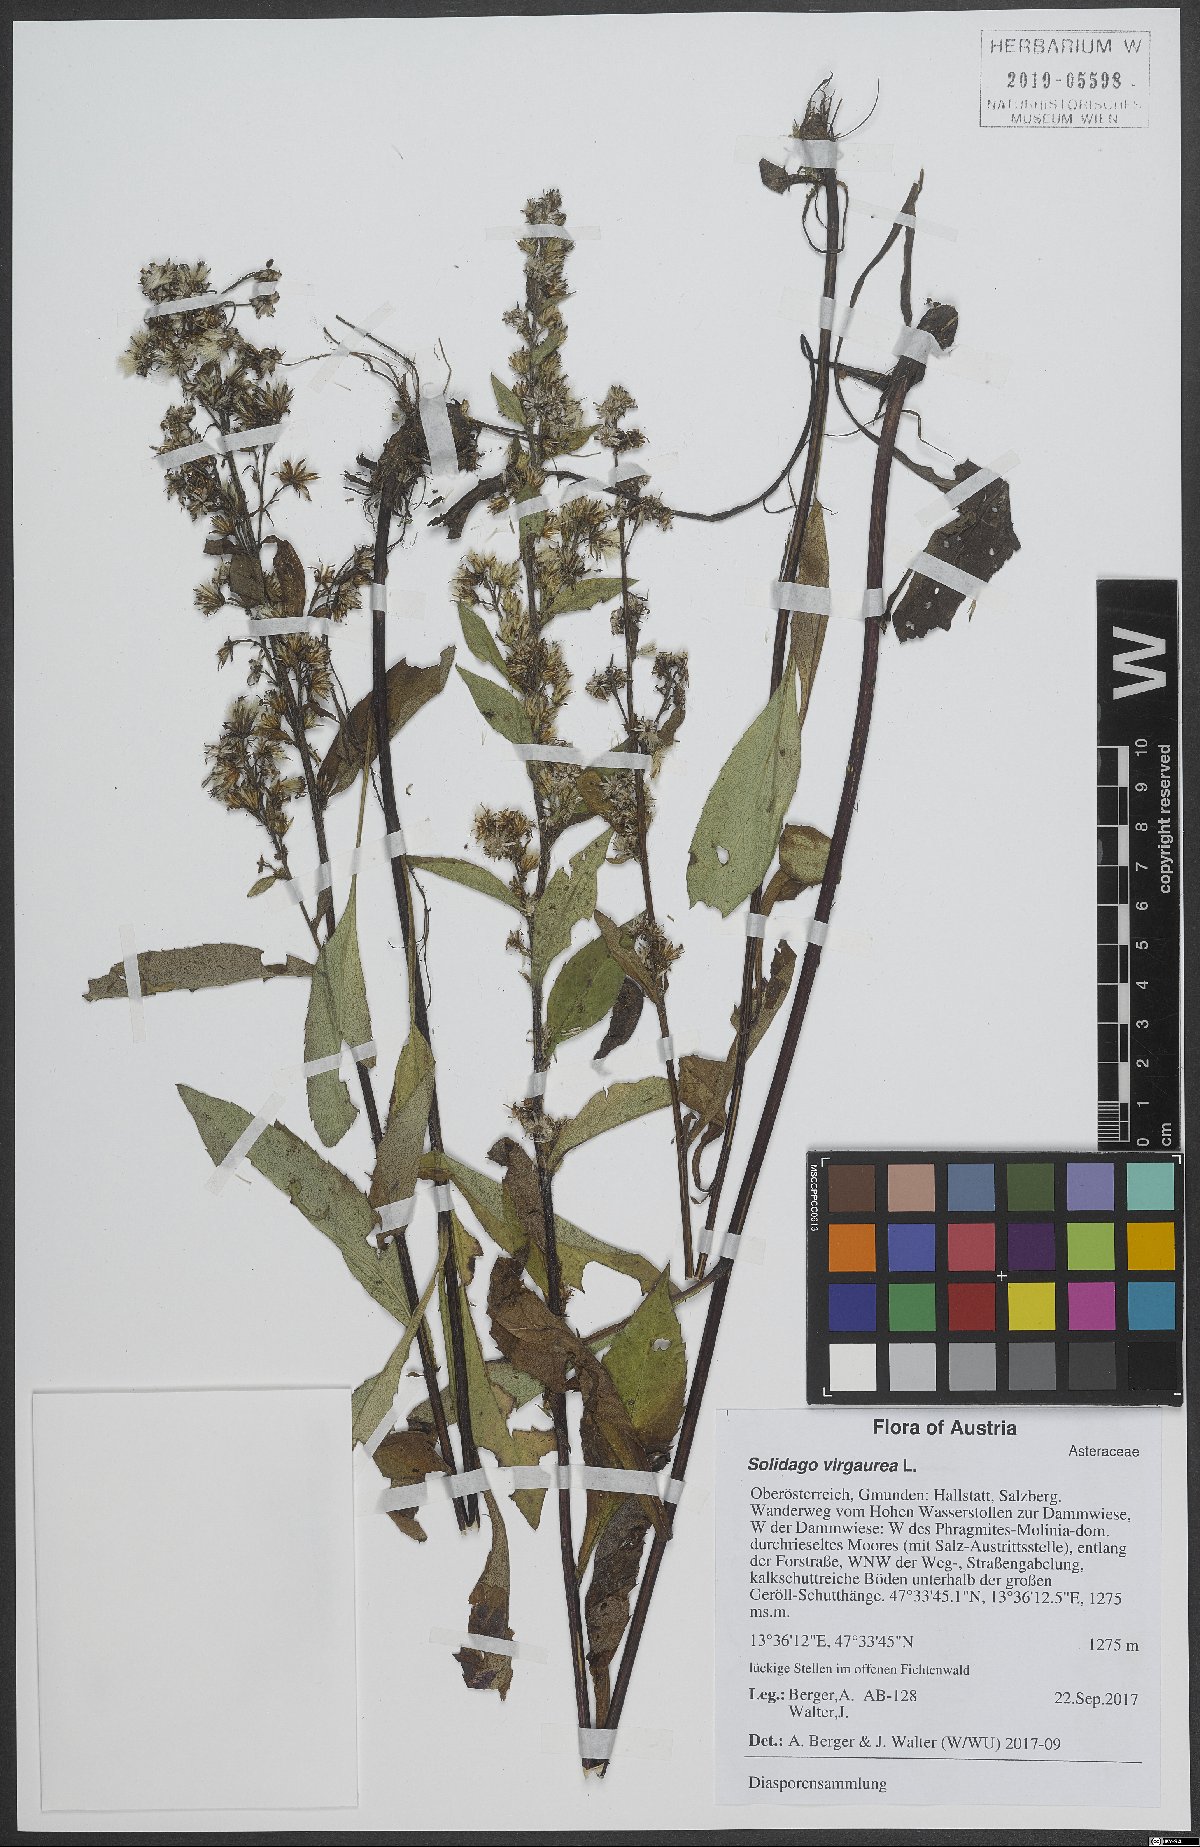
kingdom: Plantae
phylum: Tracheophyta
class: Magnoliopsida
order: Asterales
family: Asteraceae
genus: Solidago
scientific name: Solidago virgaurea
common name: Goldenrod
